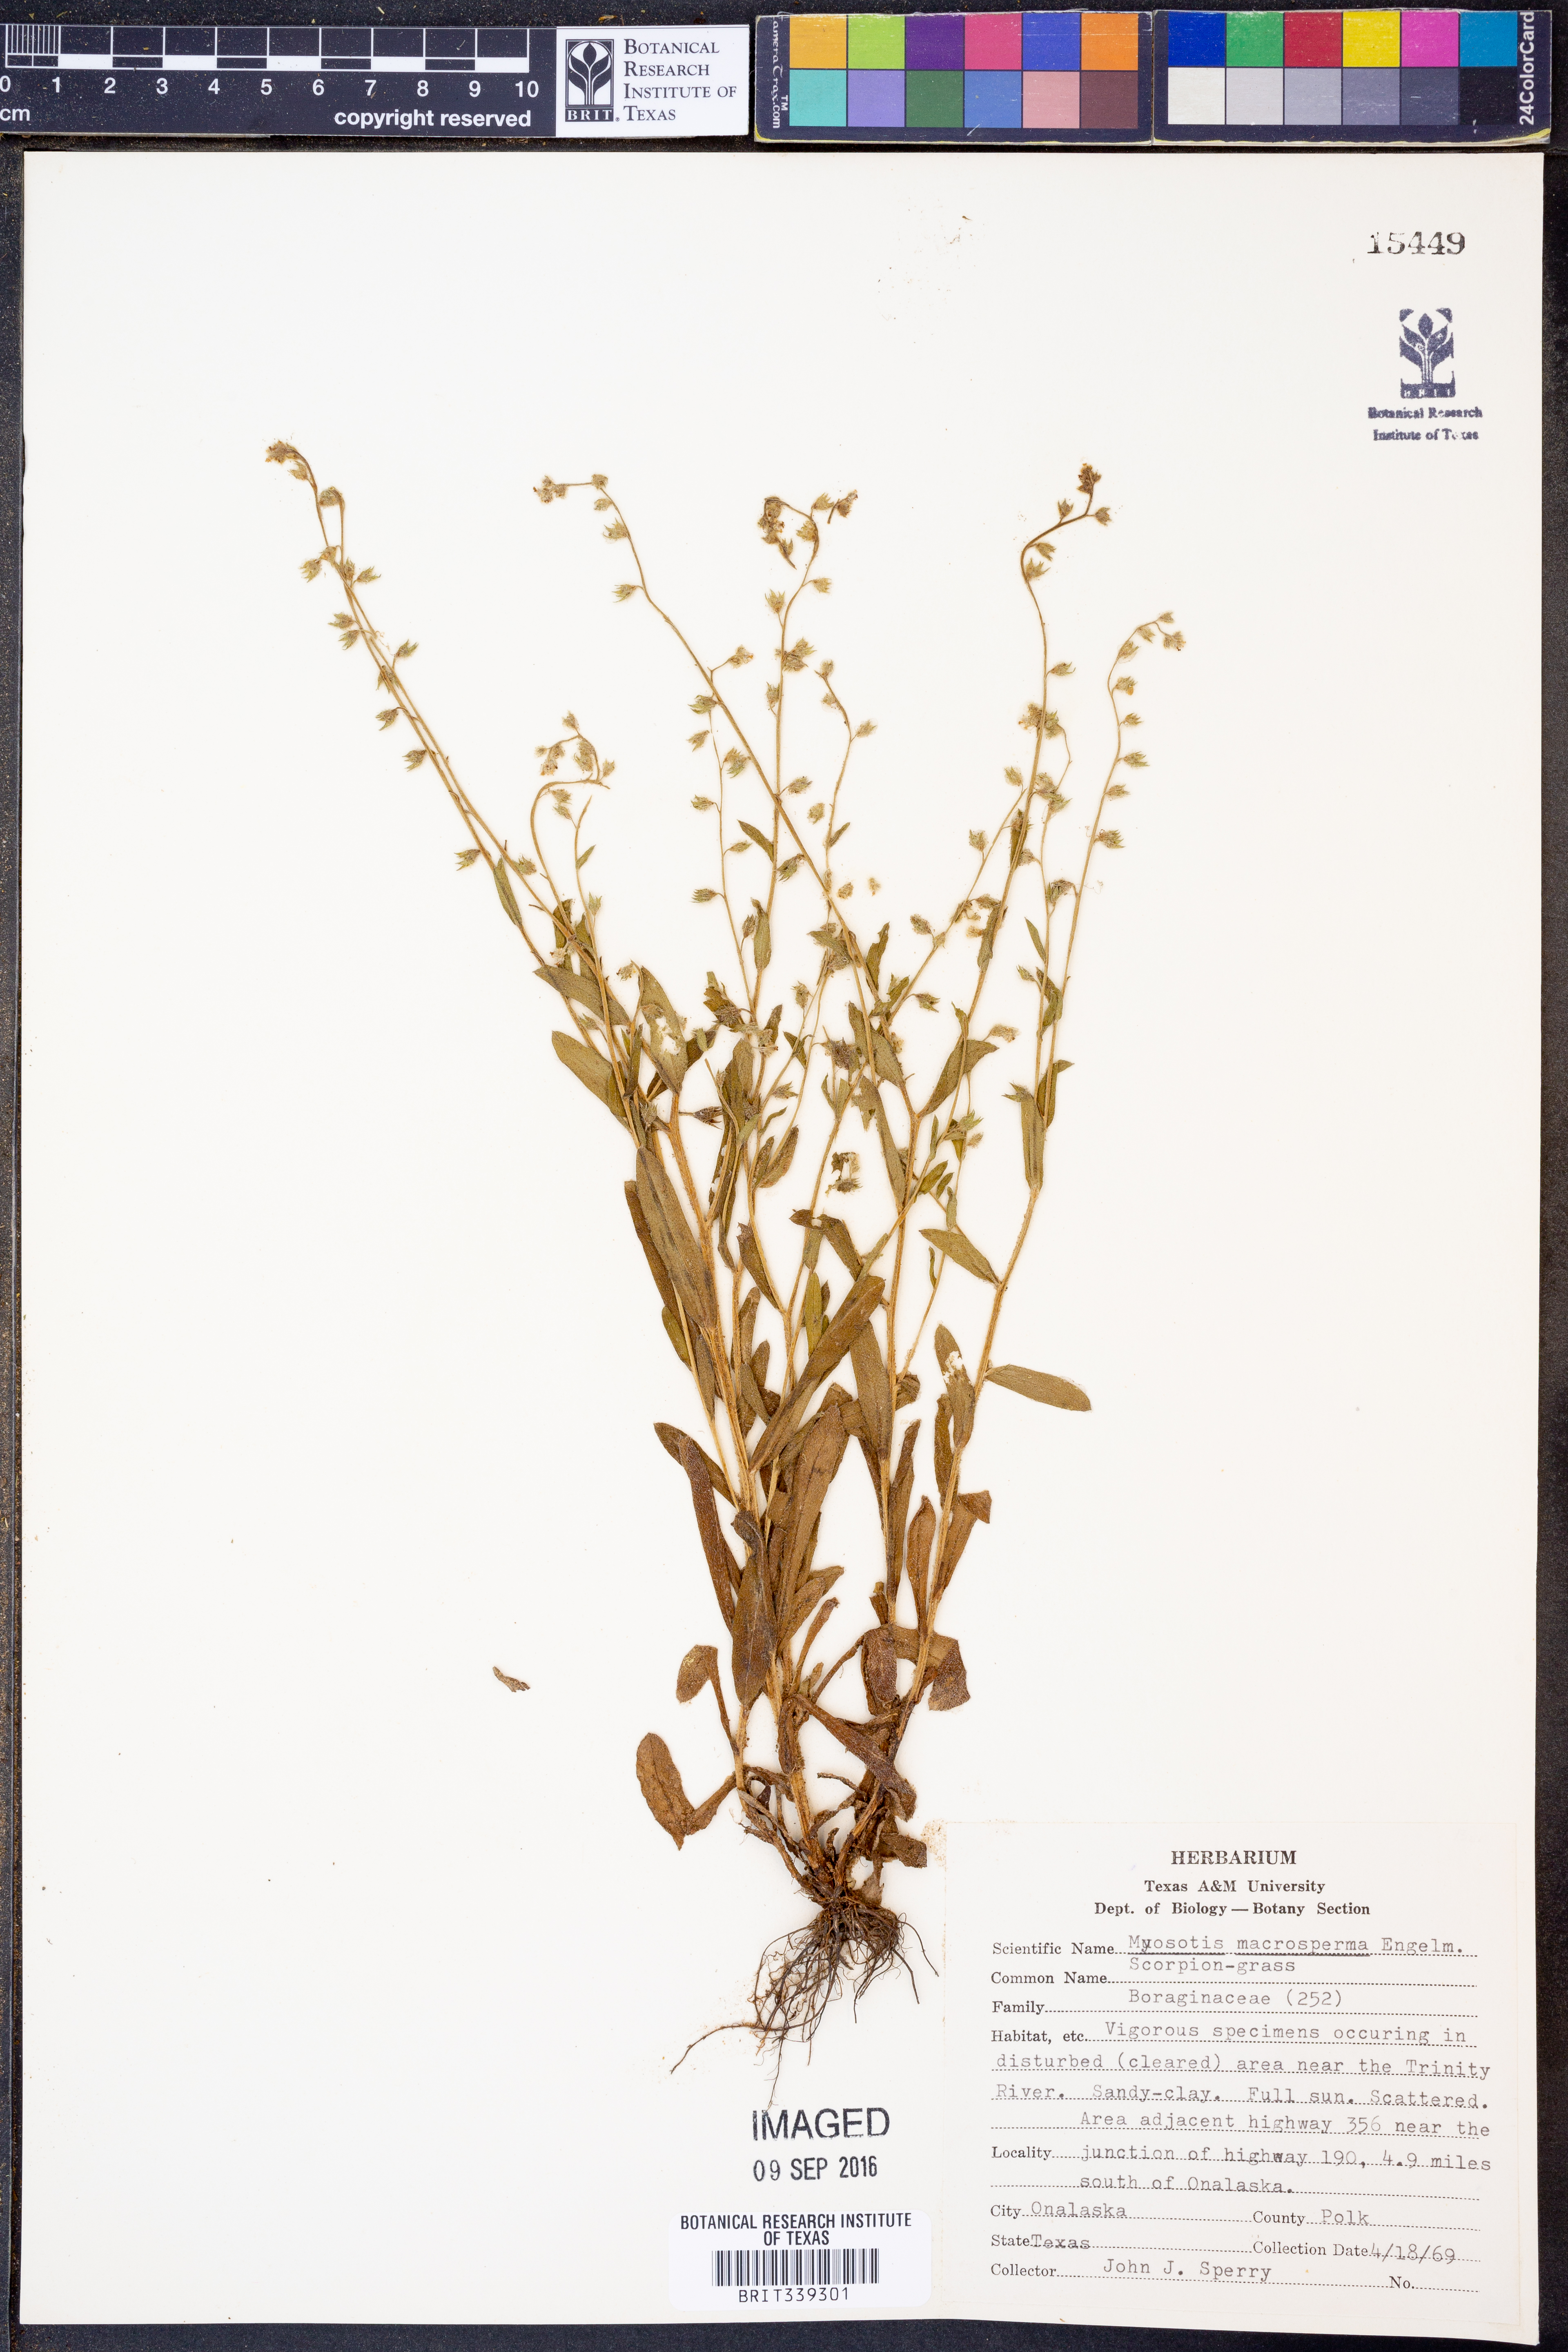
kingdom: Plantae
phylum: Tracheophyta
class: Magnoliopsida
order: Boraginales
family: Boraginaceae
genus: Myosotis
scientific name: Myosotis macrosperma
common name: Large-seed forget-me-not
